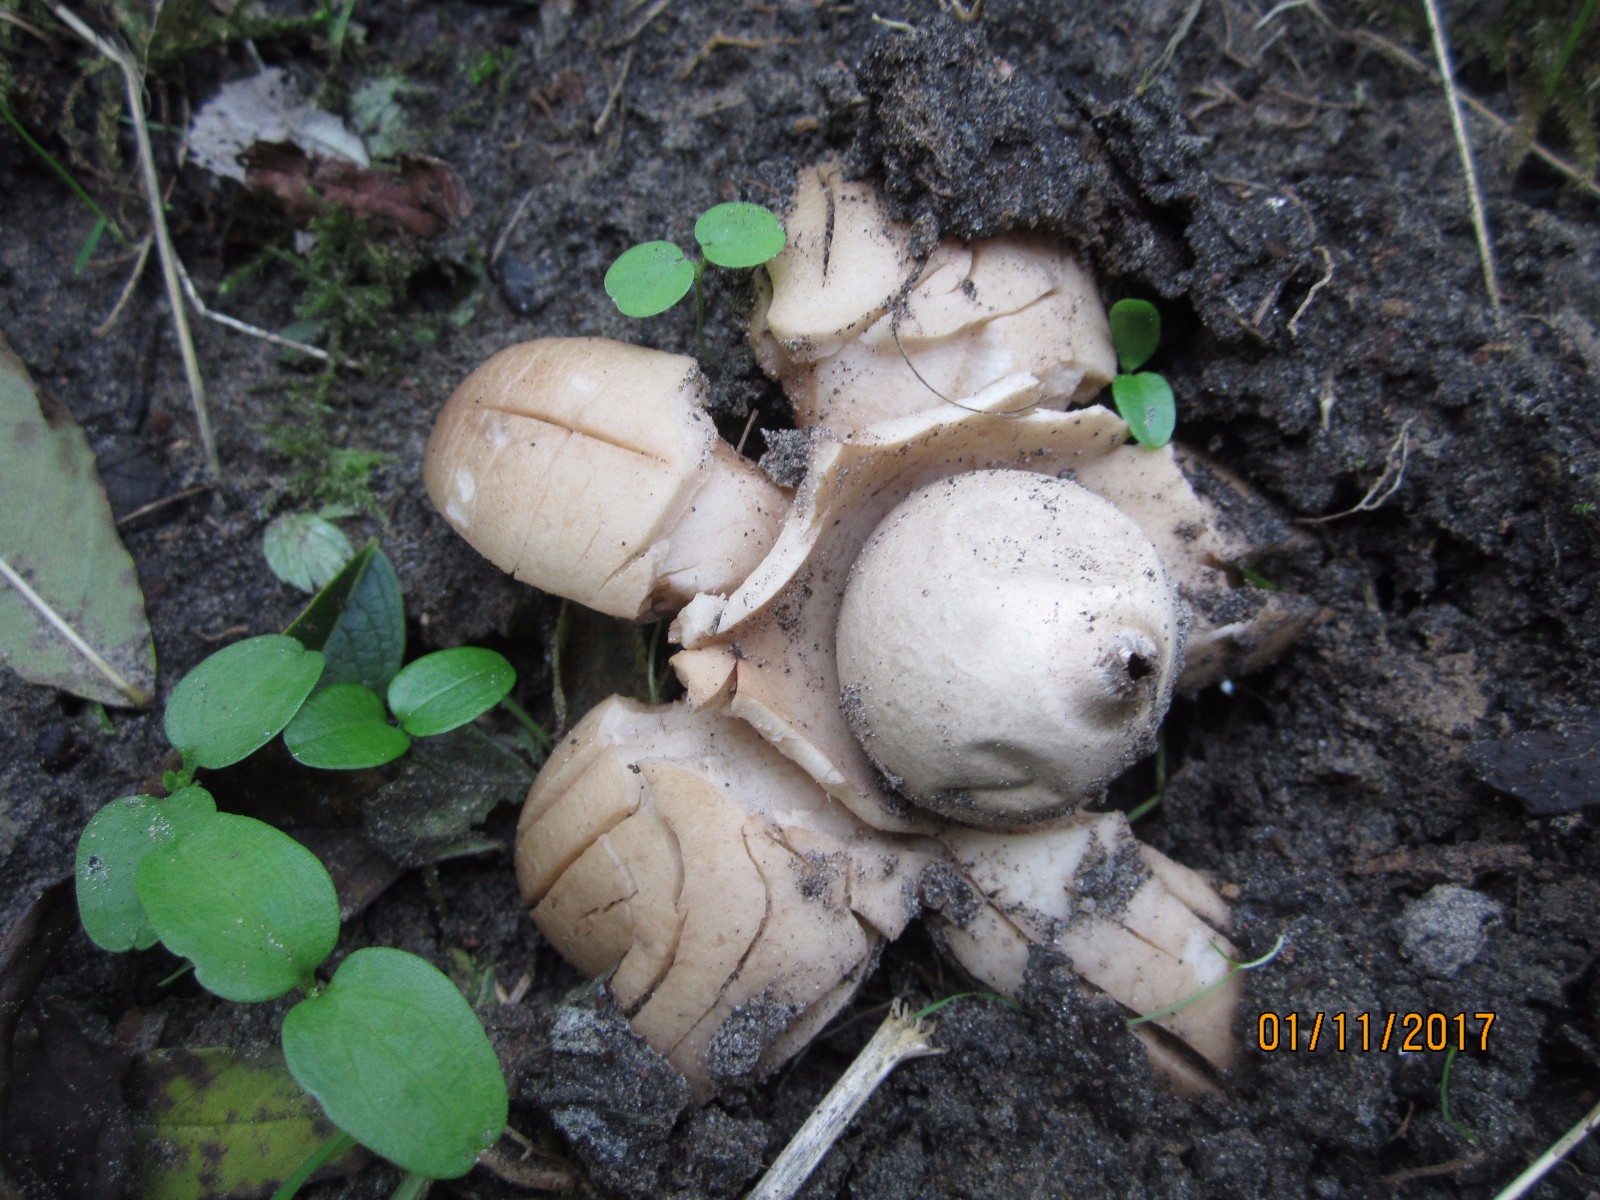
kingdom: Fungi
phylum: Basidiomycota
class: Agaricomycetes
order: Geastrales
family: Geastraceae
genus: Geastrum
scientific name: Geastrum michelianum
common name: kødet stjernebold
